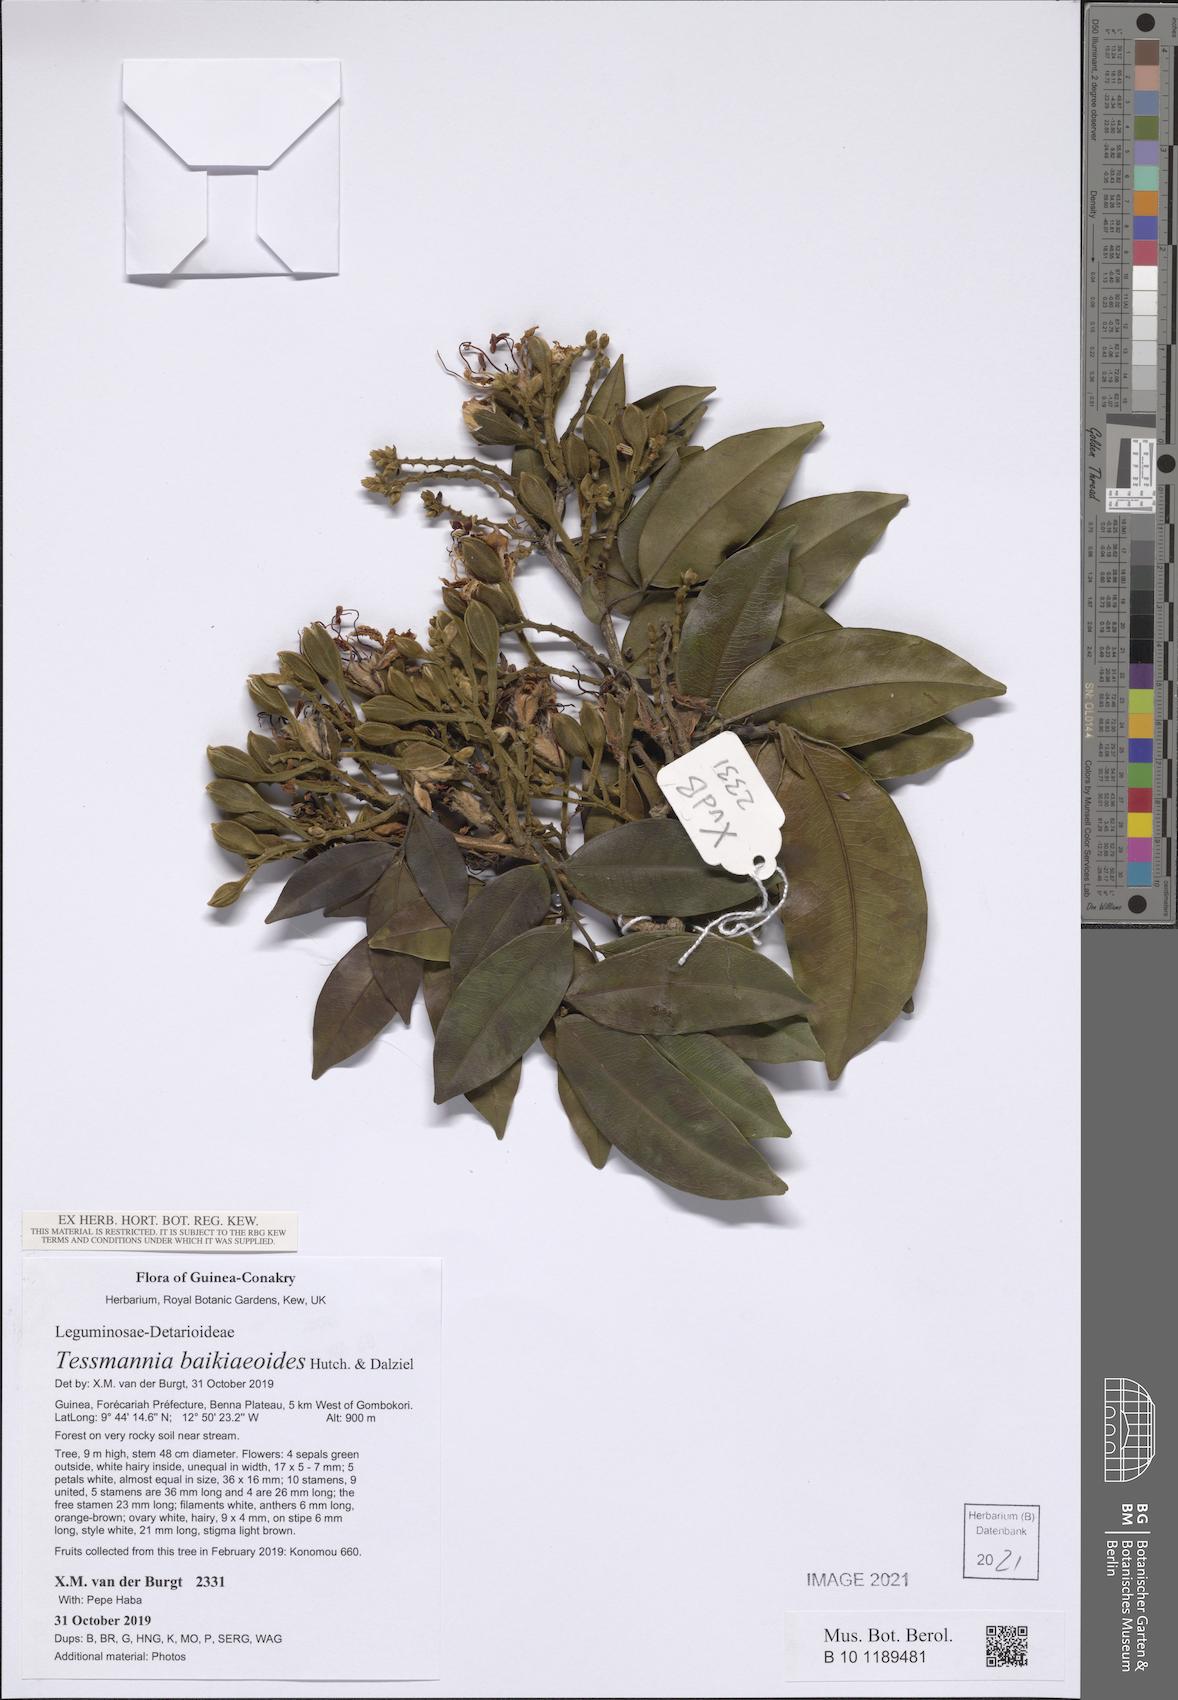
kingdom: Plantae
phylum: Tracheophyta
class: Magnoliopsida
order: Fabales
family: Fabaceae
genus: Tessmannia
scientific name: Tessmannia baikieaoides
